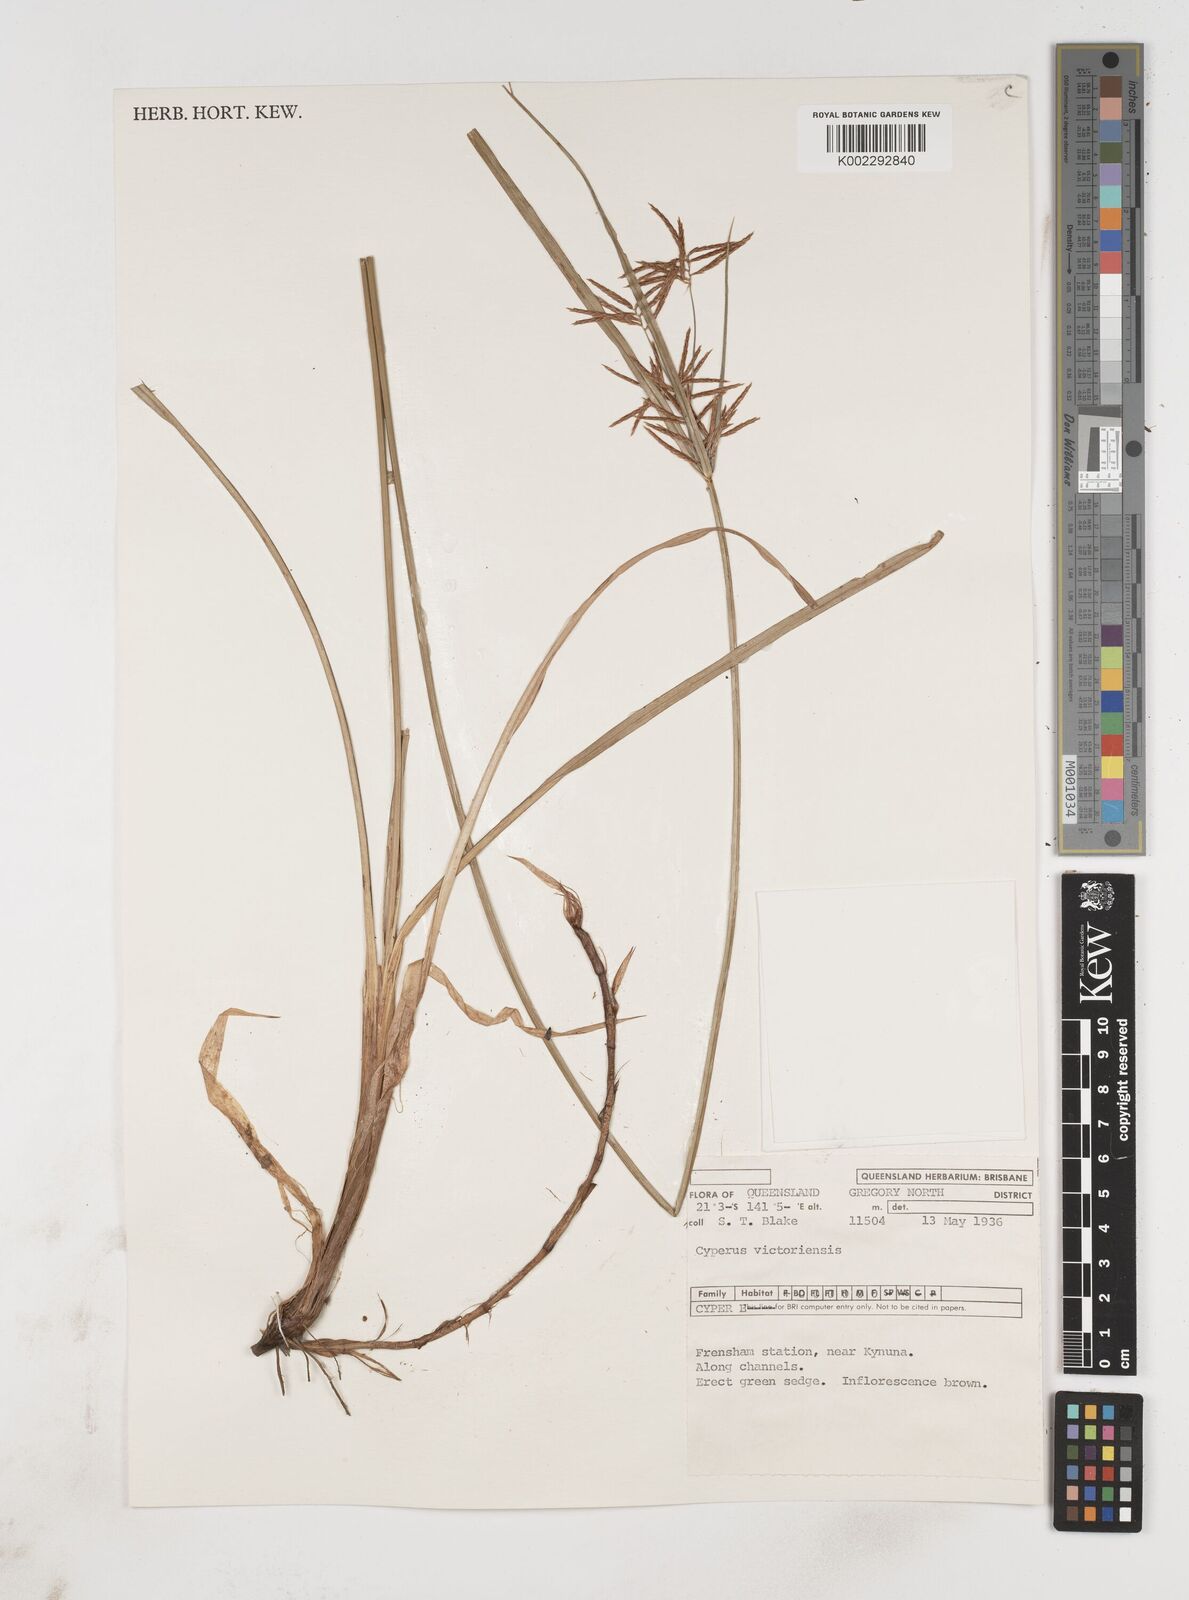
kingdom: Plantae
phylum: Tracheophyta
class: Liliopsida
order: Poales
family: Cyperaceae
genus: Cyperus
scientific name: Cyperus victoriensis
